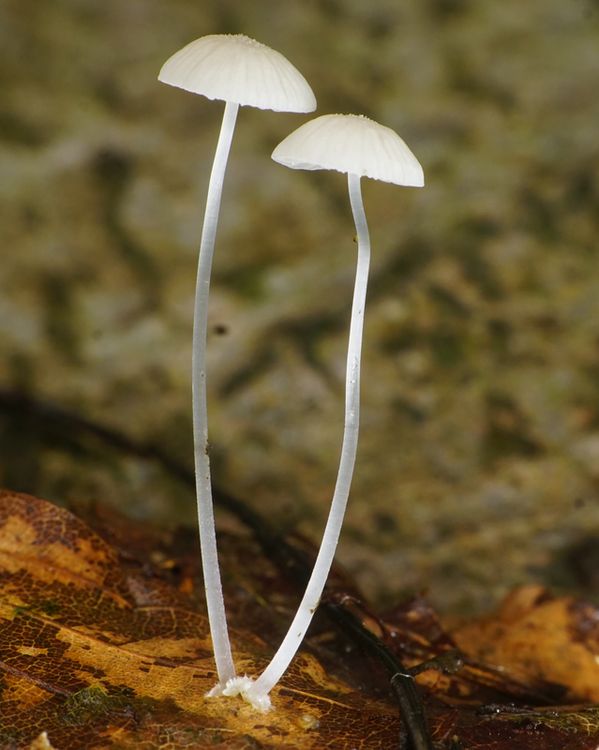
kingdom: Fungi
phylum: Basidiomycota
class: Agaricomycetes
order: Agaricales
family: Mycenaceae
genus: Mycena
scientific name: Mycena tenerrima
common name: pudret huesvamp
